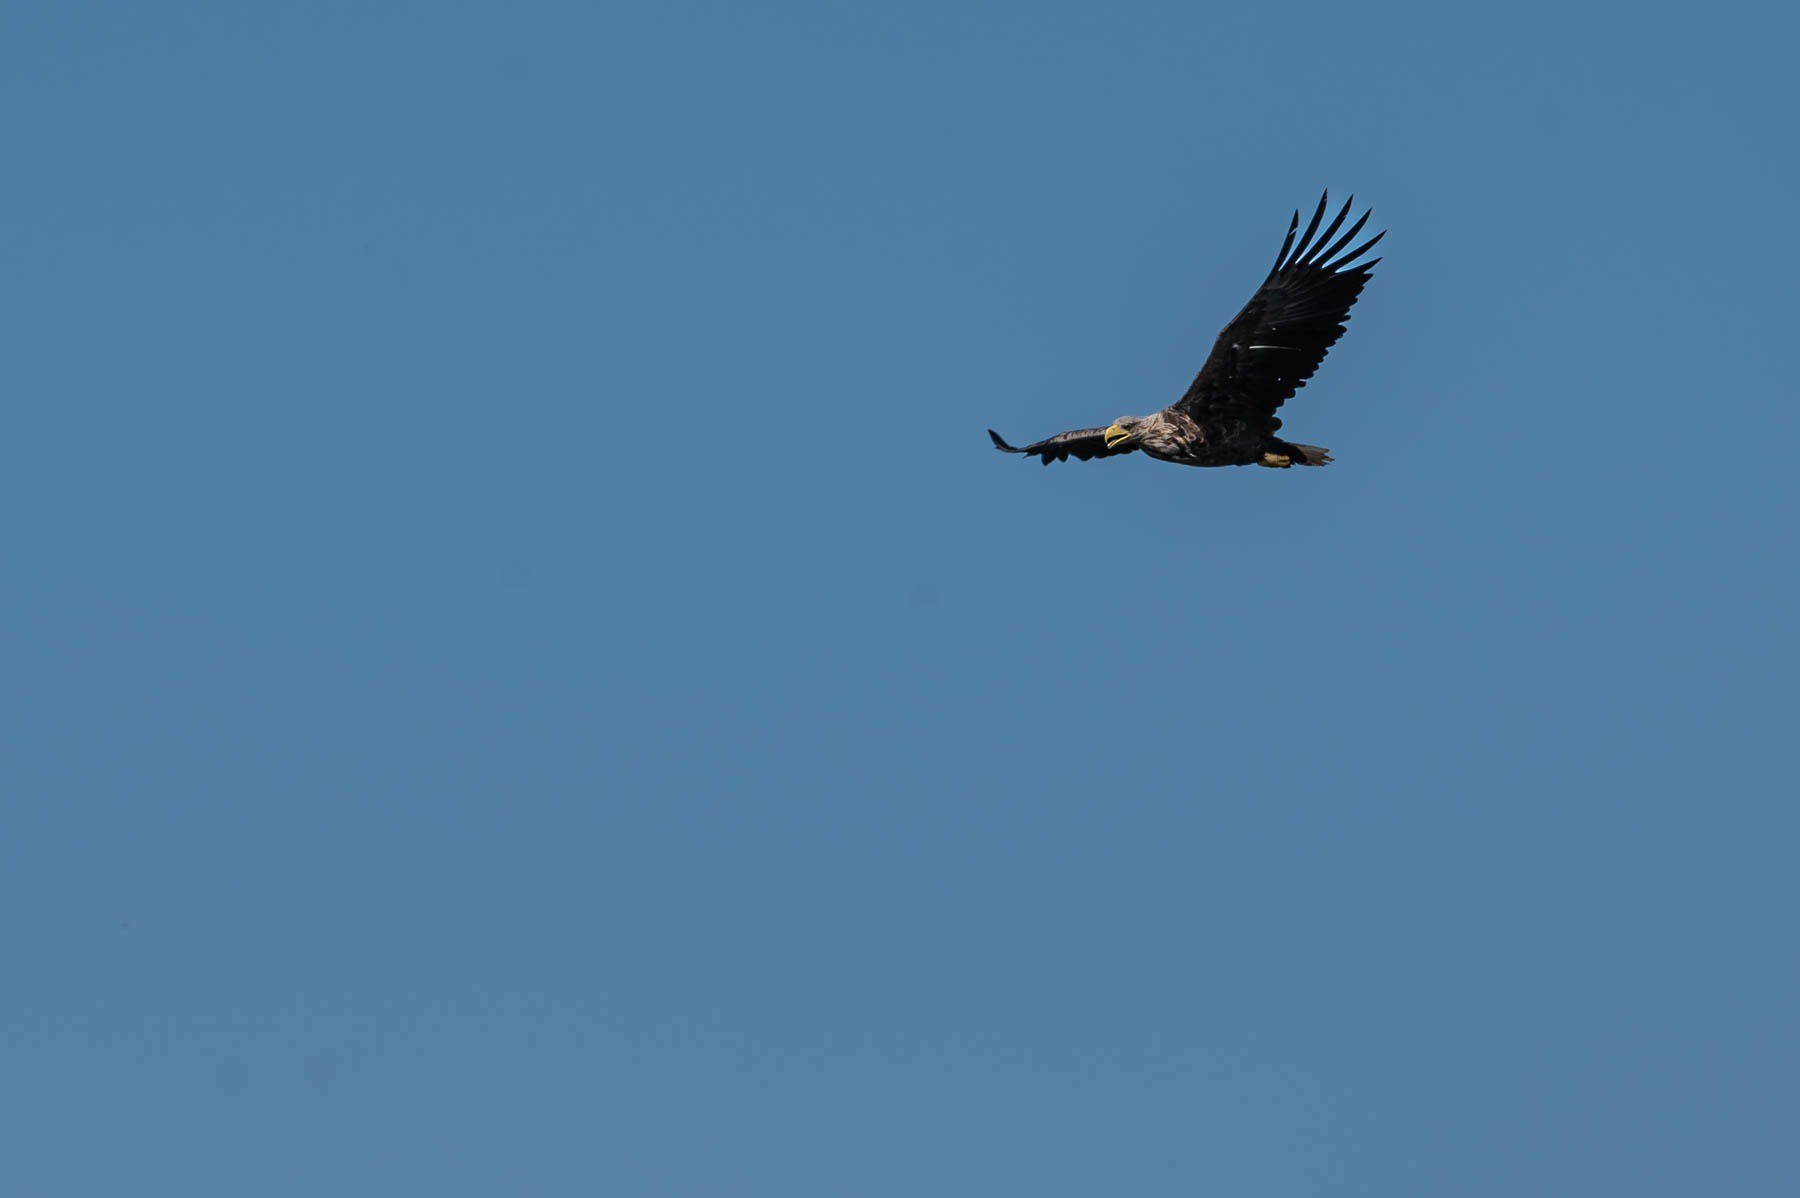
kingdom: Animalia
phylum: Chordata
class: Aves
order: Accipitriformes
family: Accipitridae
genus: Haliaeetus
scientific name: Haliaeetus albicilla
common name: Havørn
